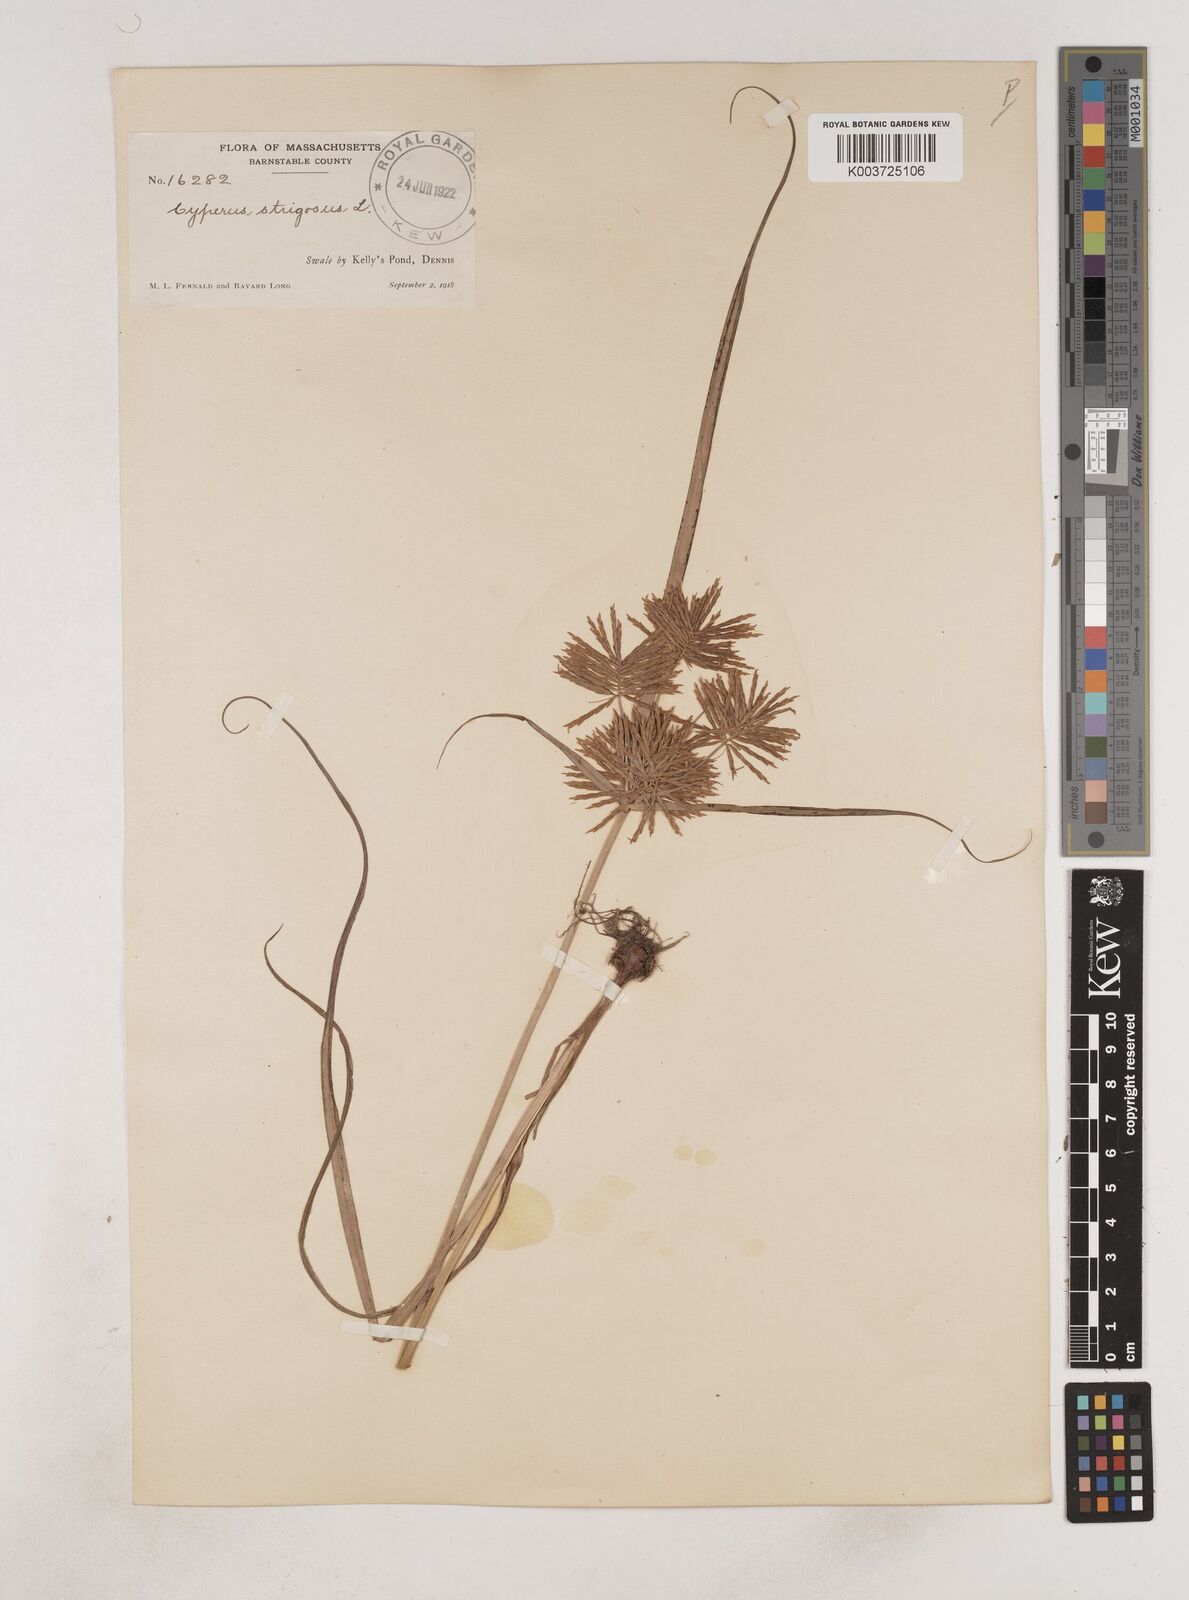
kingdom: Plantae
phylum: Tracheophyta
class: Liliopsida
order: Poales
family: Cyperaceae
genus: Cyperus
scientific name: Cyperus strigosus
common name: False nutsedge
